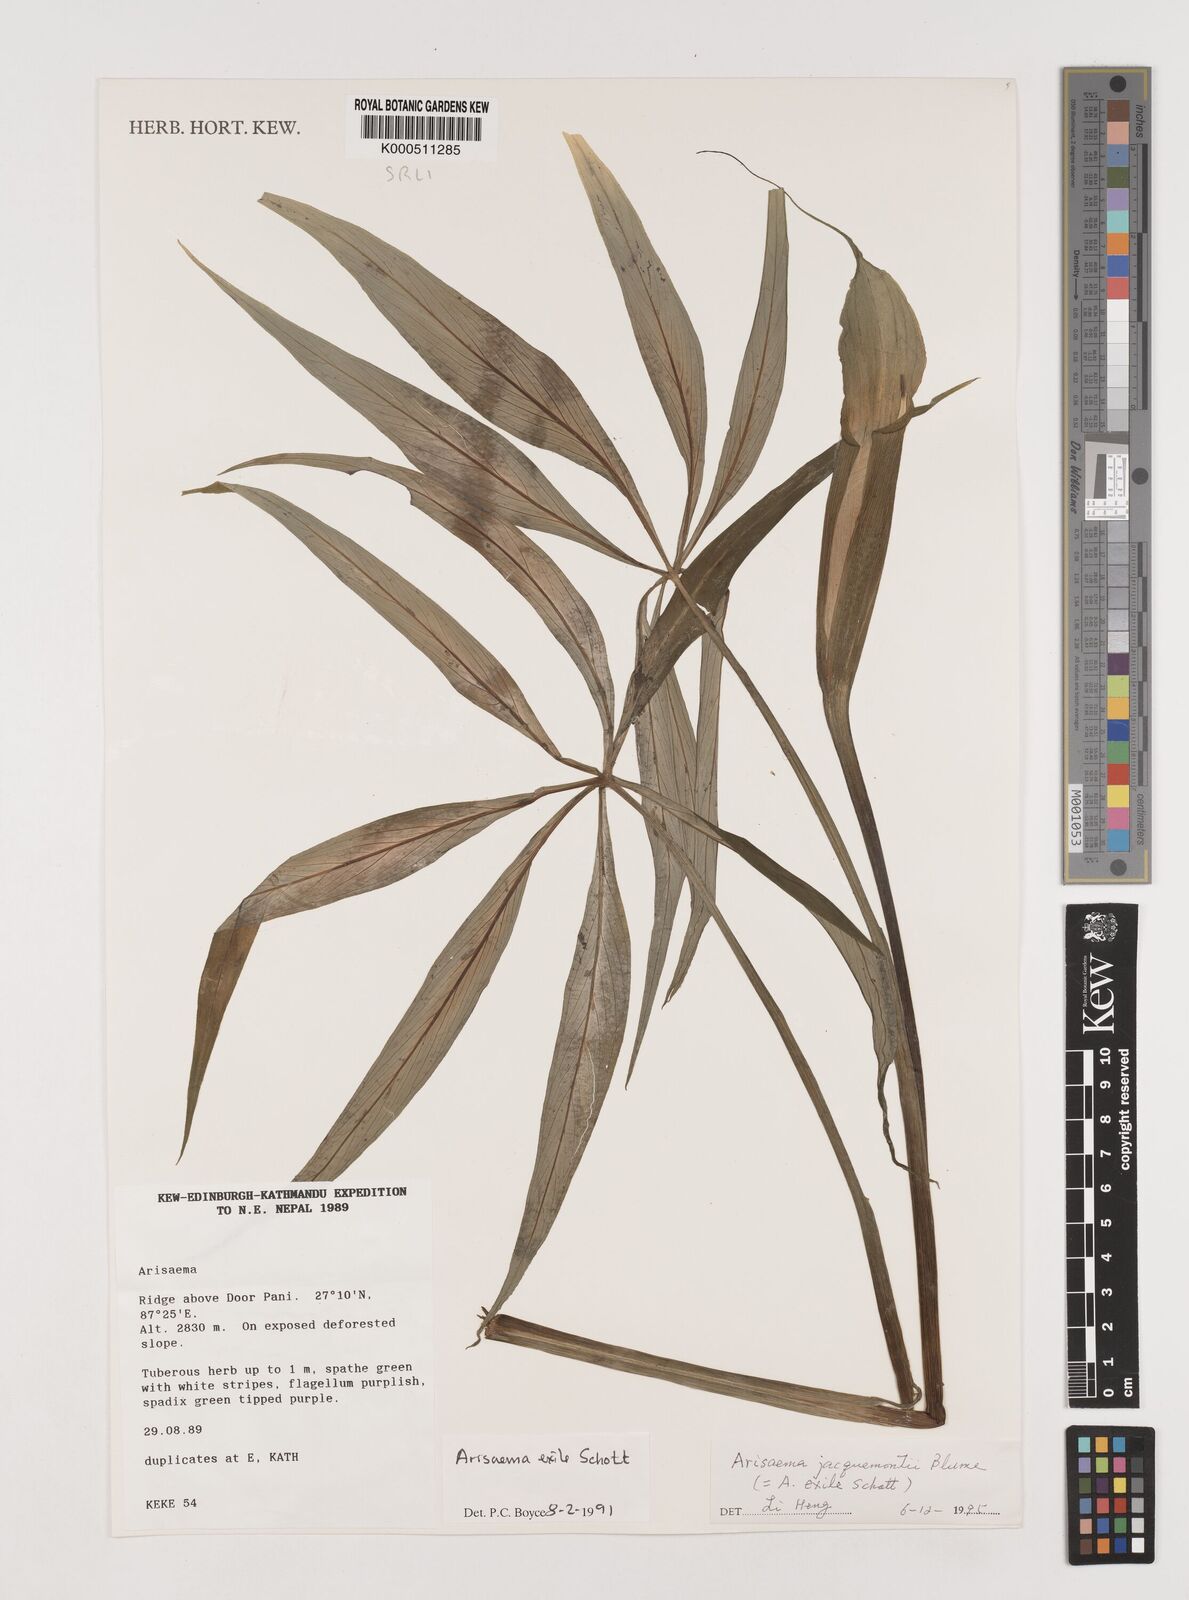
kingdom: Plantae
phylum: Tracheophyta
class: Liliopsida
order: Alismatales
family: Araceae
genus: Arisaema
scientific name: Arisaema jacquemontii
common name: Jacquemont's cobra-lily
